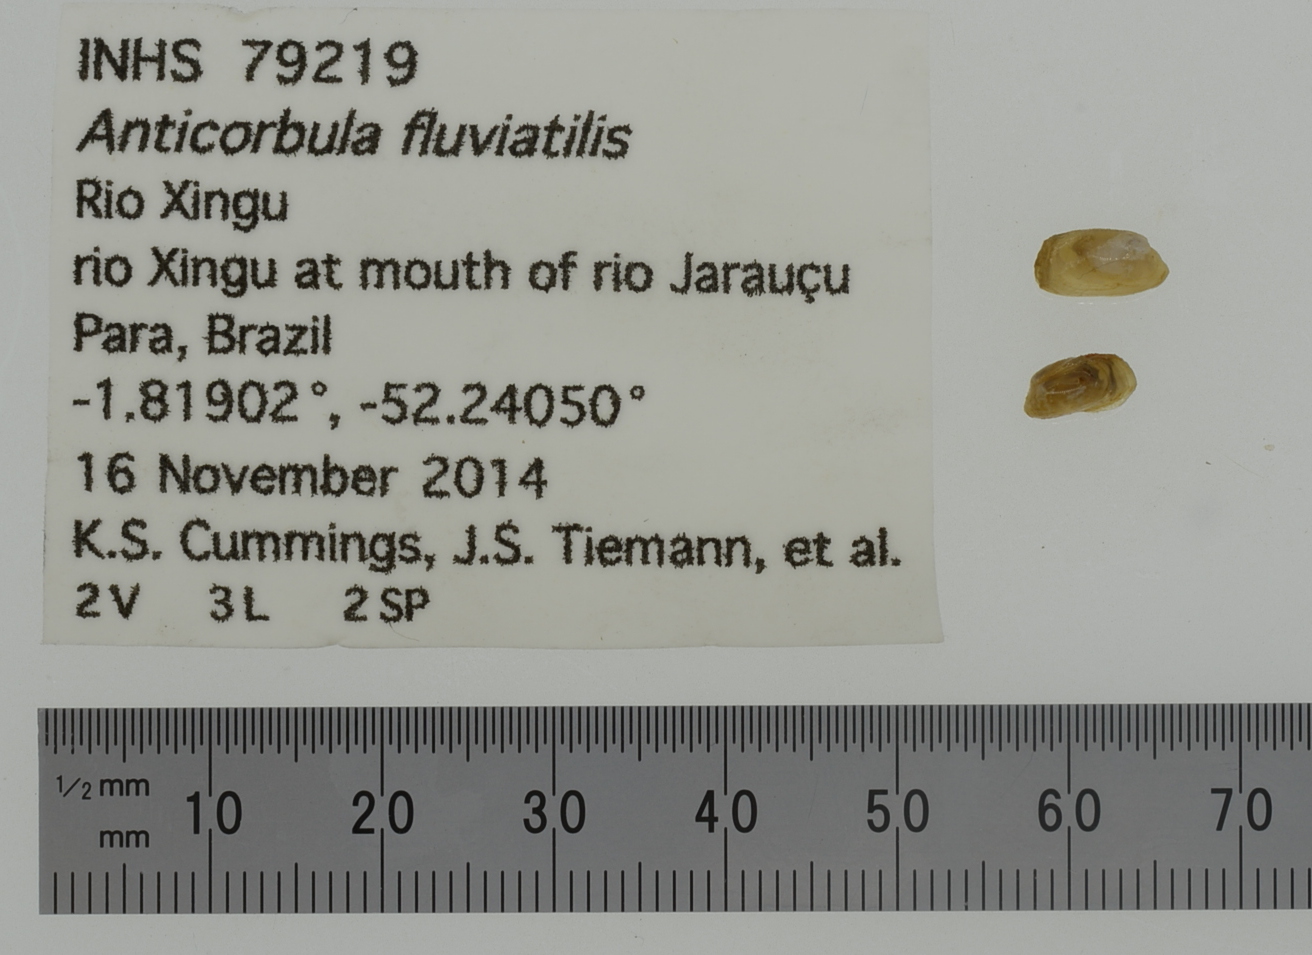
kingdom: Animalia
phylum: Mollusca
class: Bivalvia
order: Unionida
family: Unionidae
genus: Cyclonaias
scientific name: Cyclonaias nodulata
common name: Wartyback
